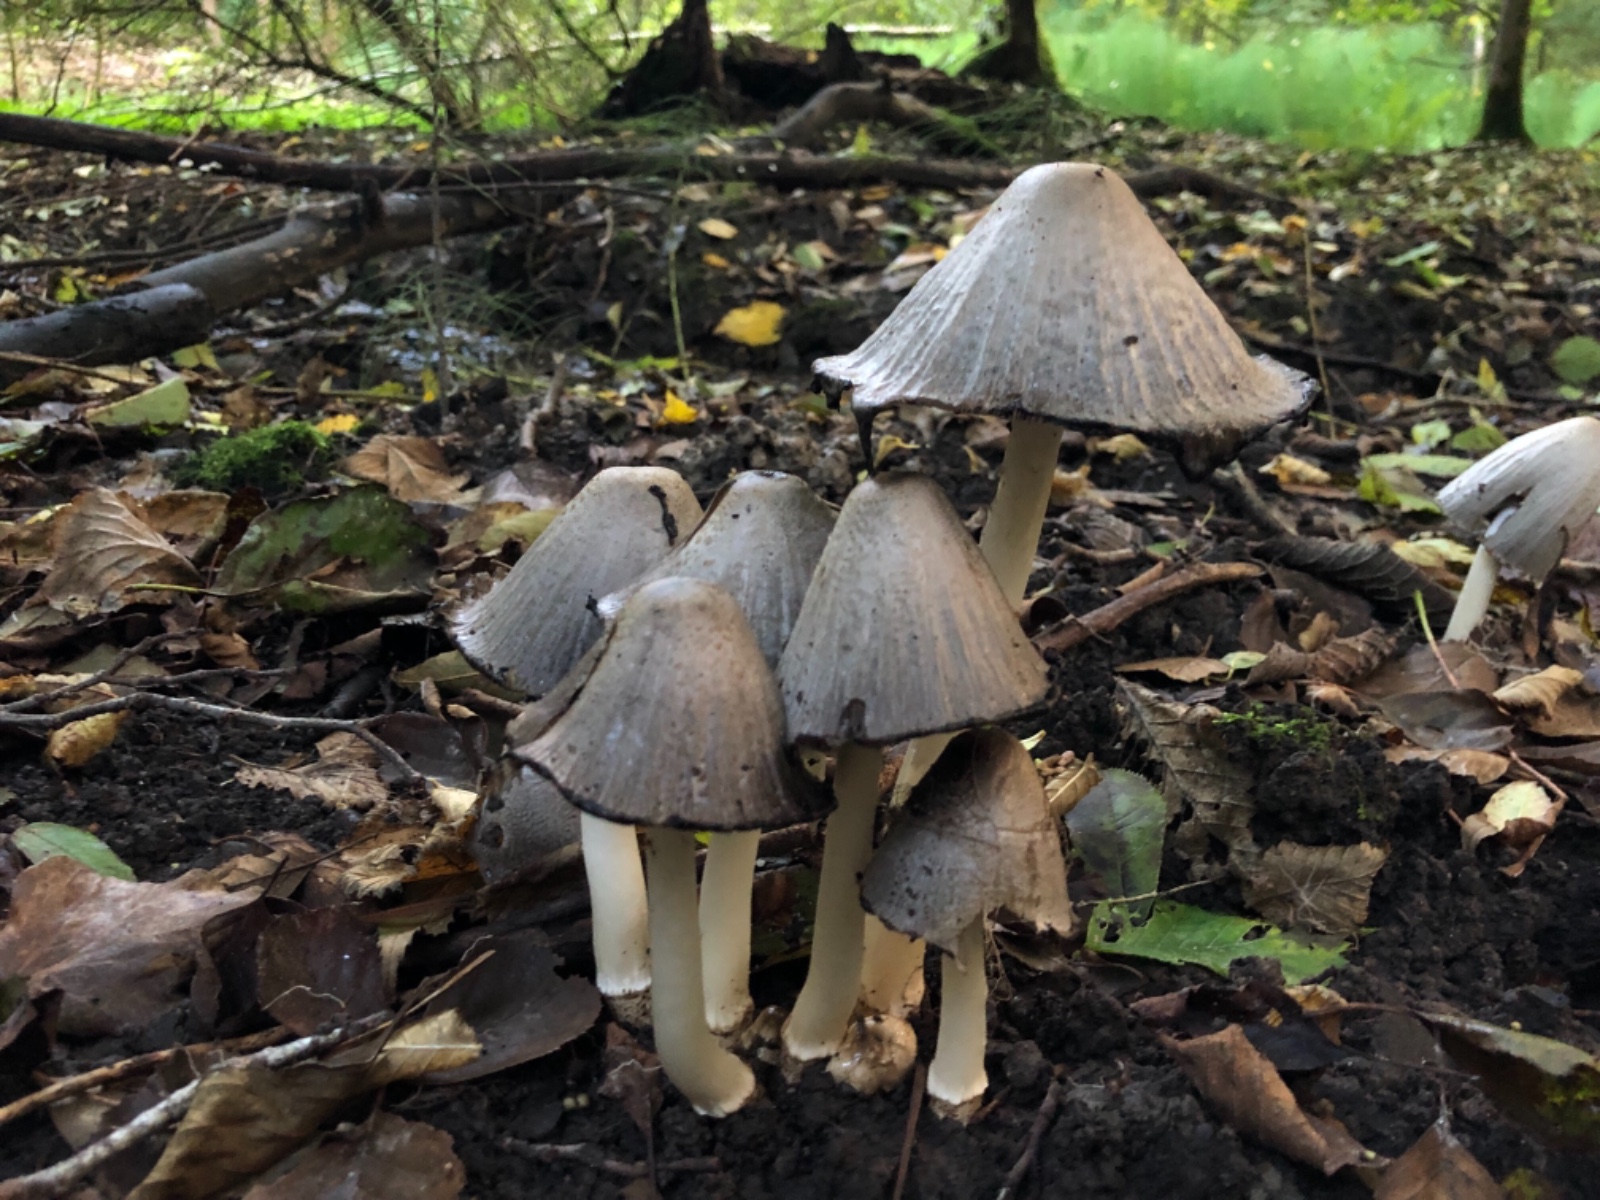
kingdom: Fungi
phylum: Basidiomycota
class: Agaricomycetes
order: Agaricales
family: Psathyrellaceae
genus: Coprinopsis
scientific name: Coprinopsis atramentaria
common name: almindelig blækhat
